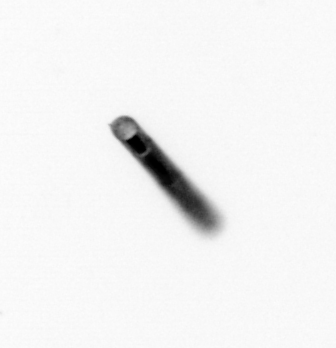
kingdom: Chromista
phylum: Ochrophyta
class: Bacillariophyceae
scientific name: Bacillariophyceae
